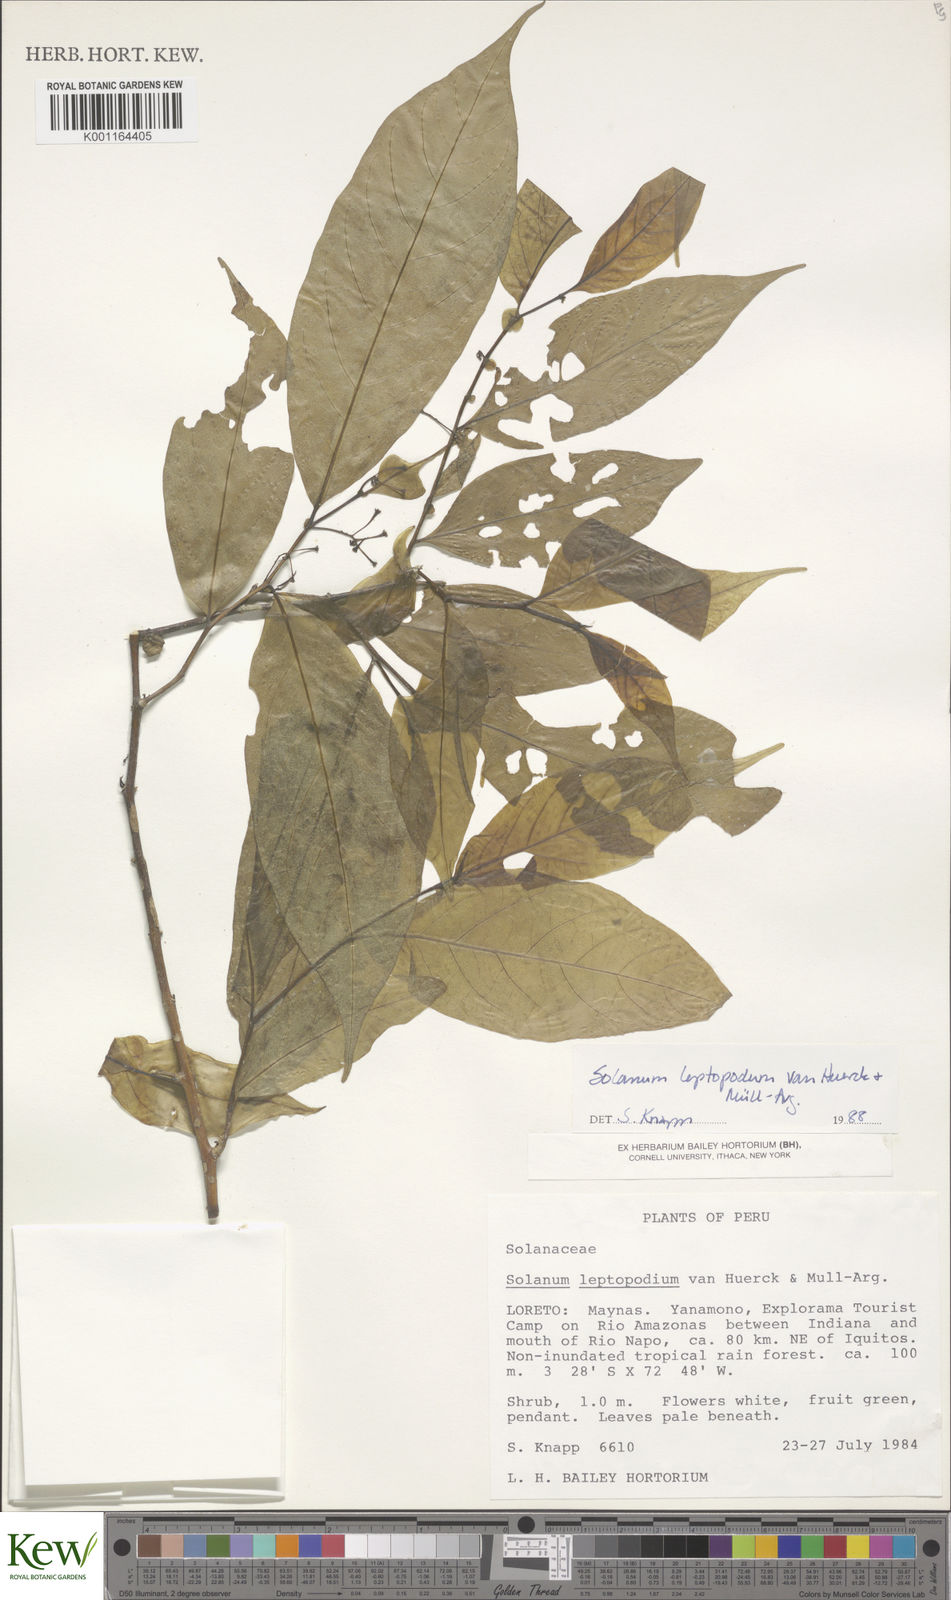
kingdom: Plantae
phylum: Tracheophyta
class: Magnoliopsida
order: Solanales
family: Solanaceae
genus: Solanum
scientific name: Solanum leptopodum
